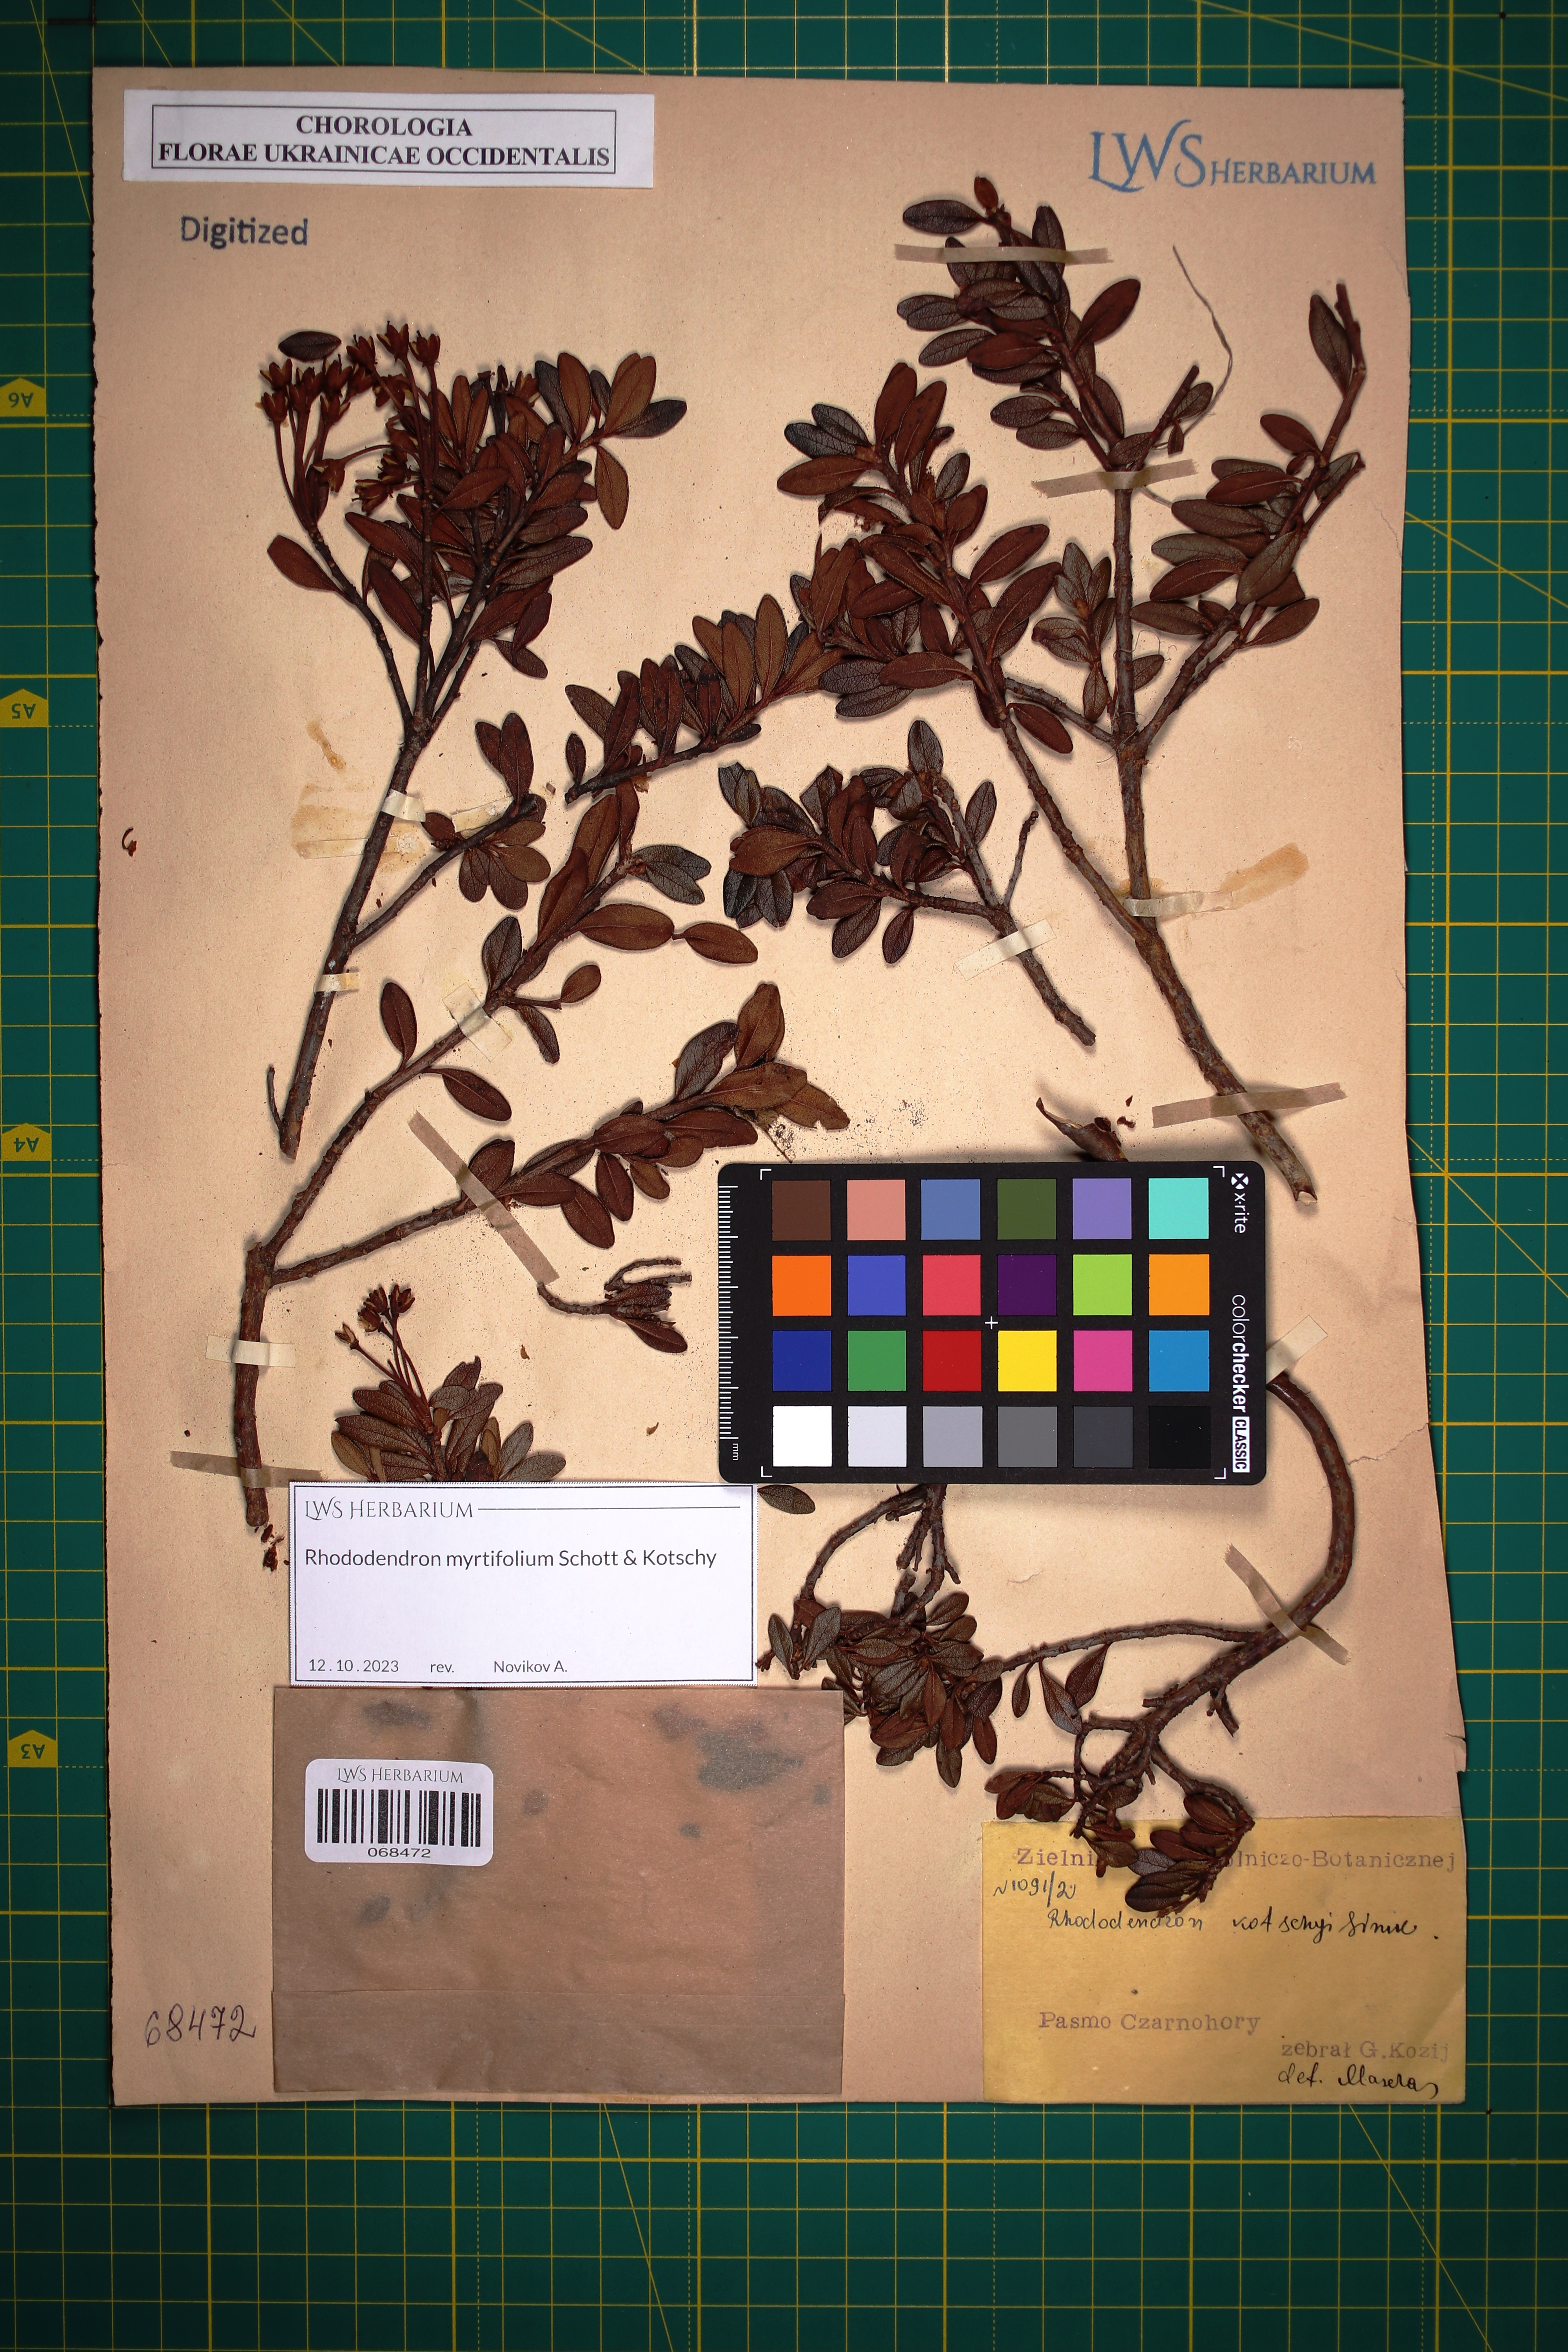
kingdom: Plantae
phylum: Tracheophyta
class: Magnoliopsida
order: Ericales
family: Ericaceae
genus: Rhododendron
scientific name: Rhododendron kotschyi
